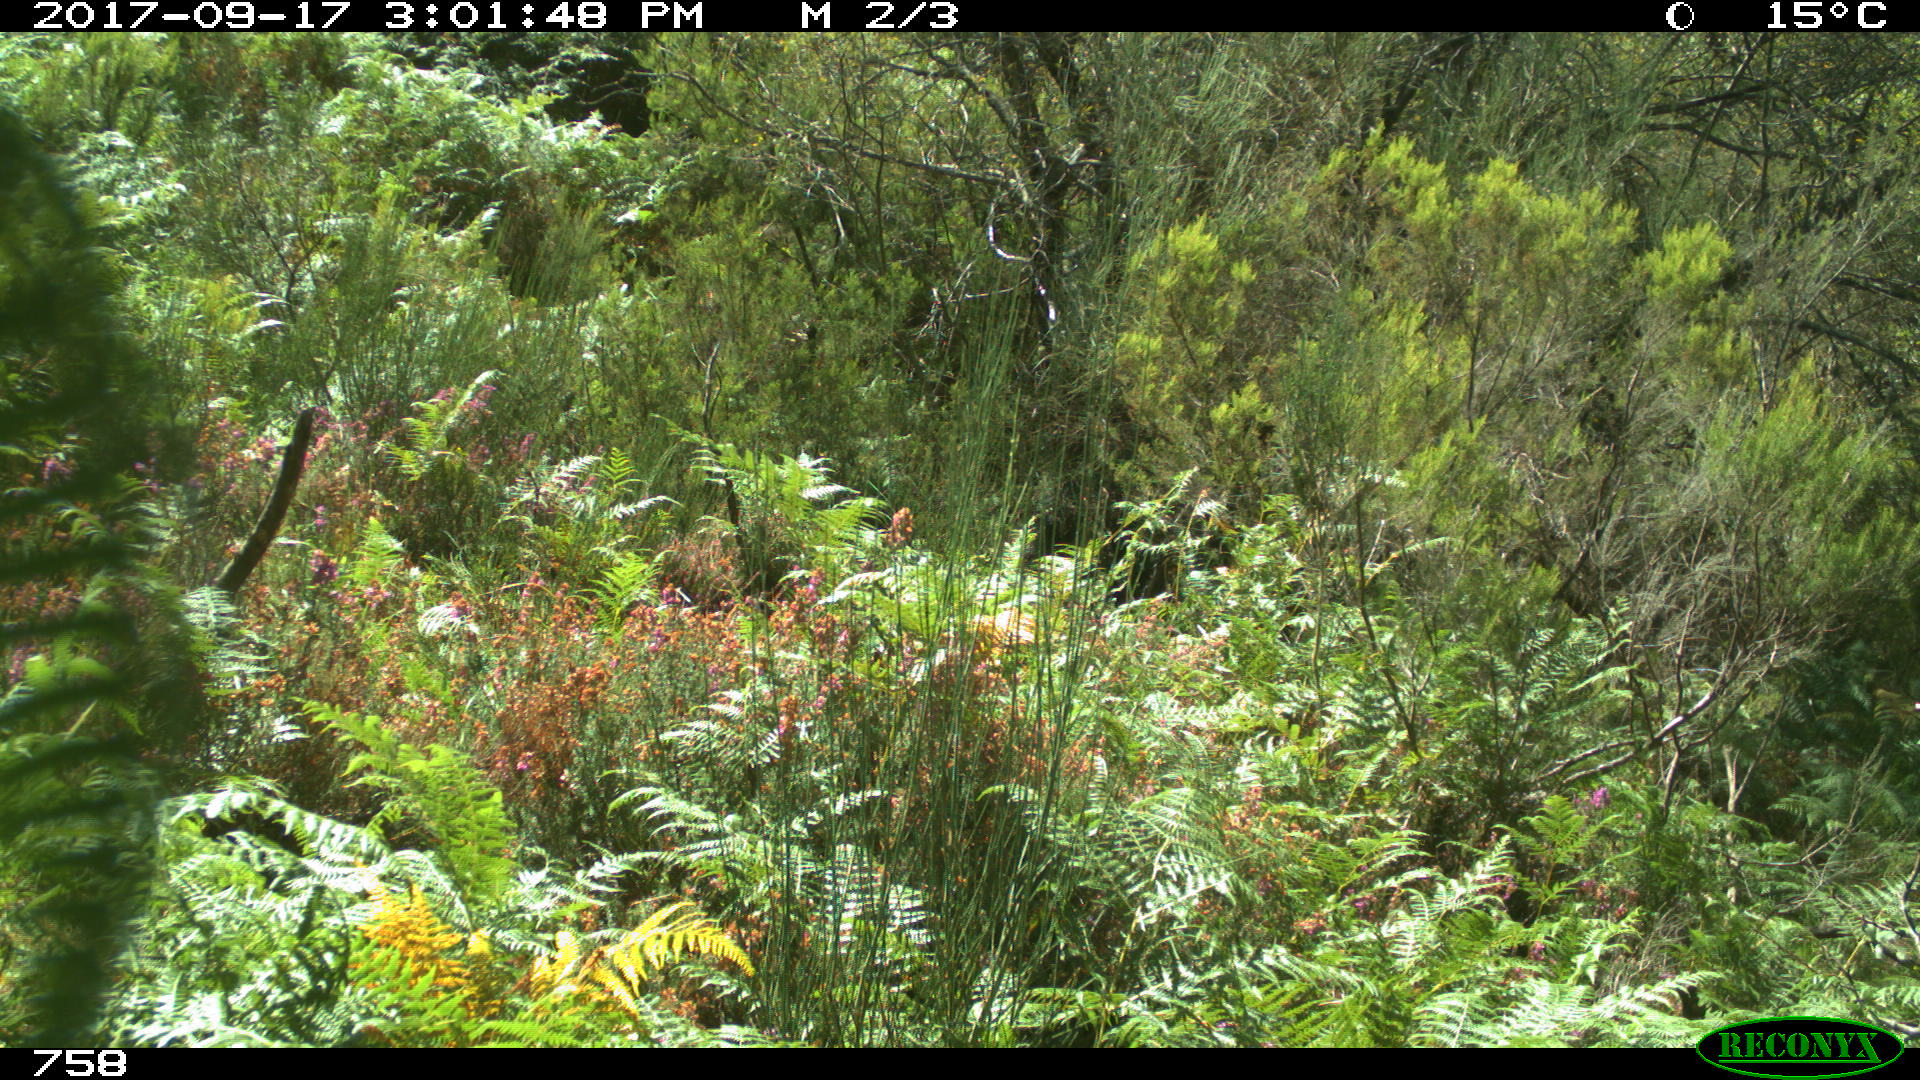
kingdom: Animalia
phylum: Chordata
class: Mammalia
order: Perissodactyla
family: Equidae
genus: Equus
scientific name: Equus caballus
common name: Horse
